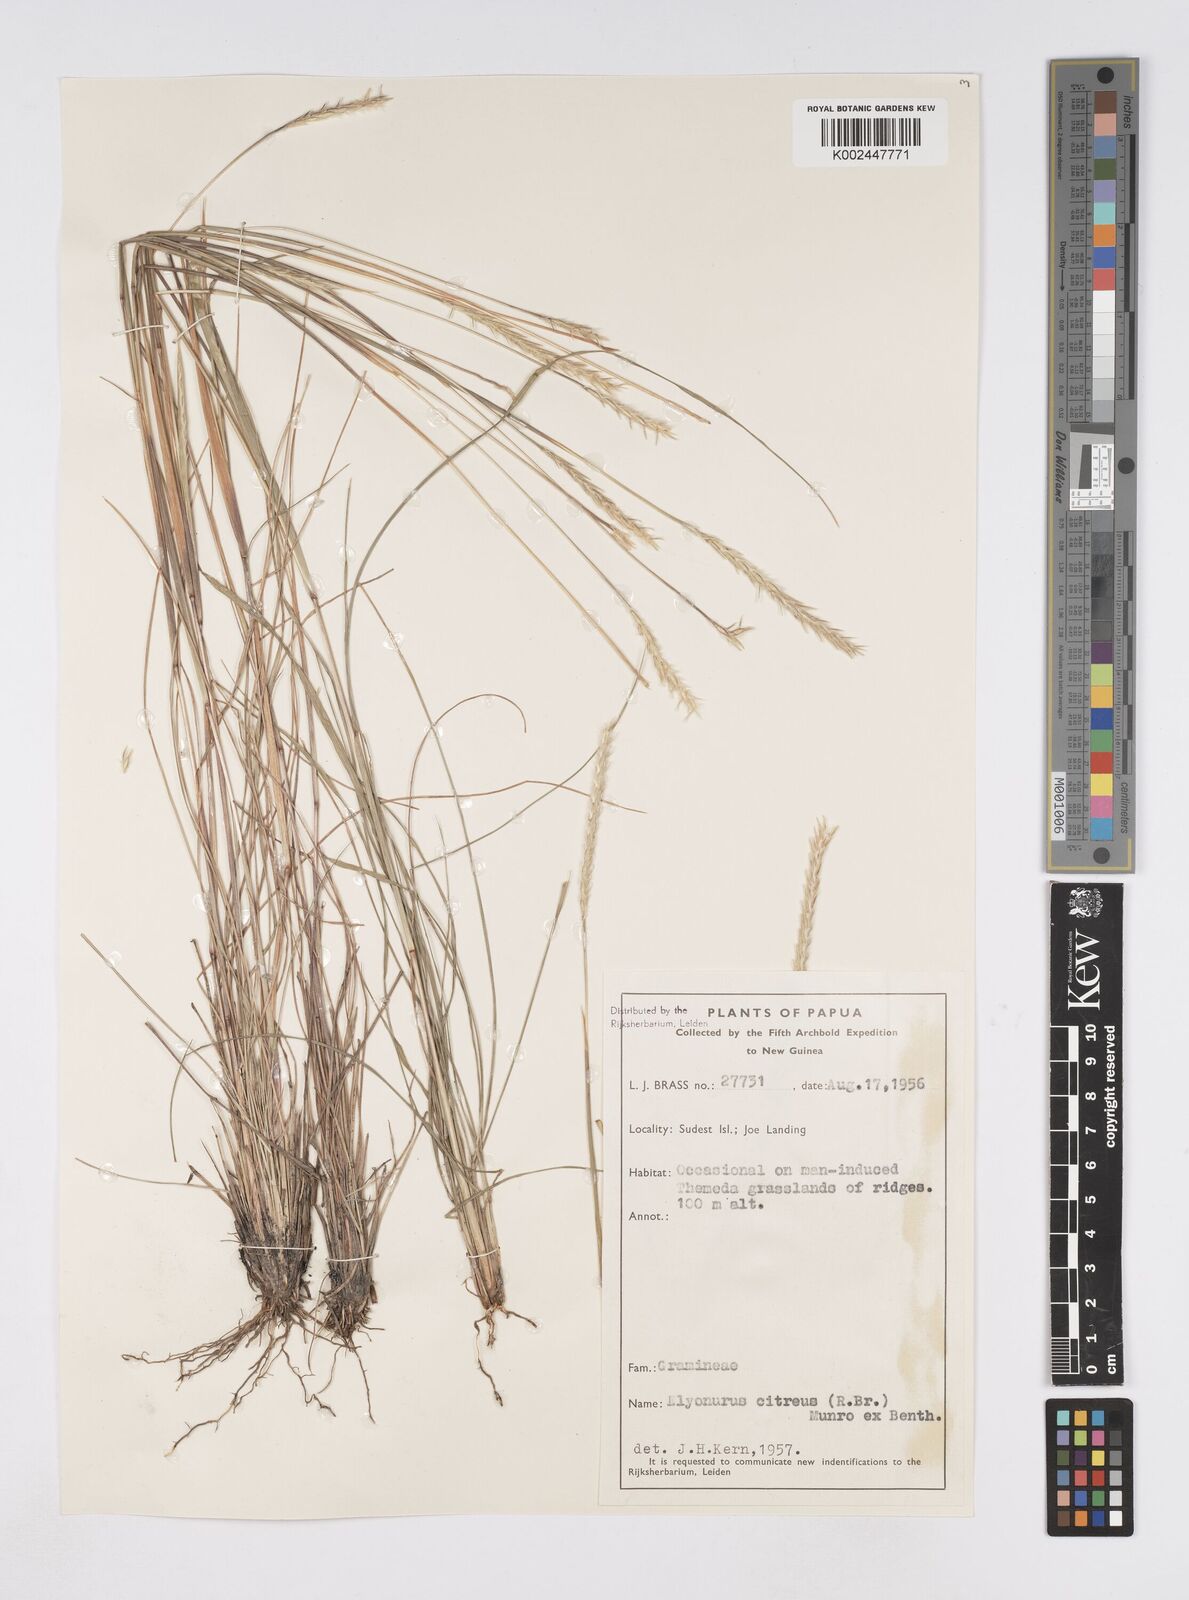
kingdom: Plantae
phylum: Tracheophyta
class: Liliopsida
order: Poales
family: Poaceae
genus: Elionurus
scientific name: Elionurus citreus
